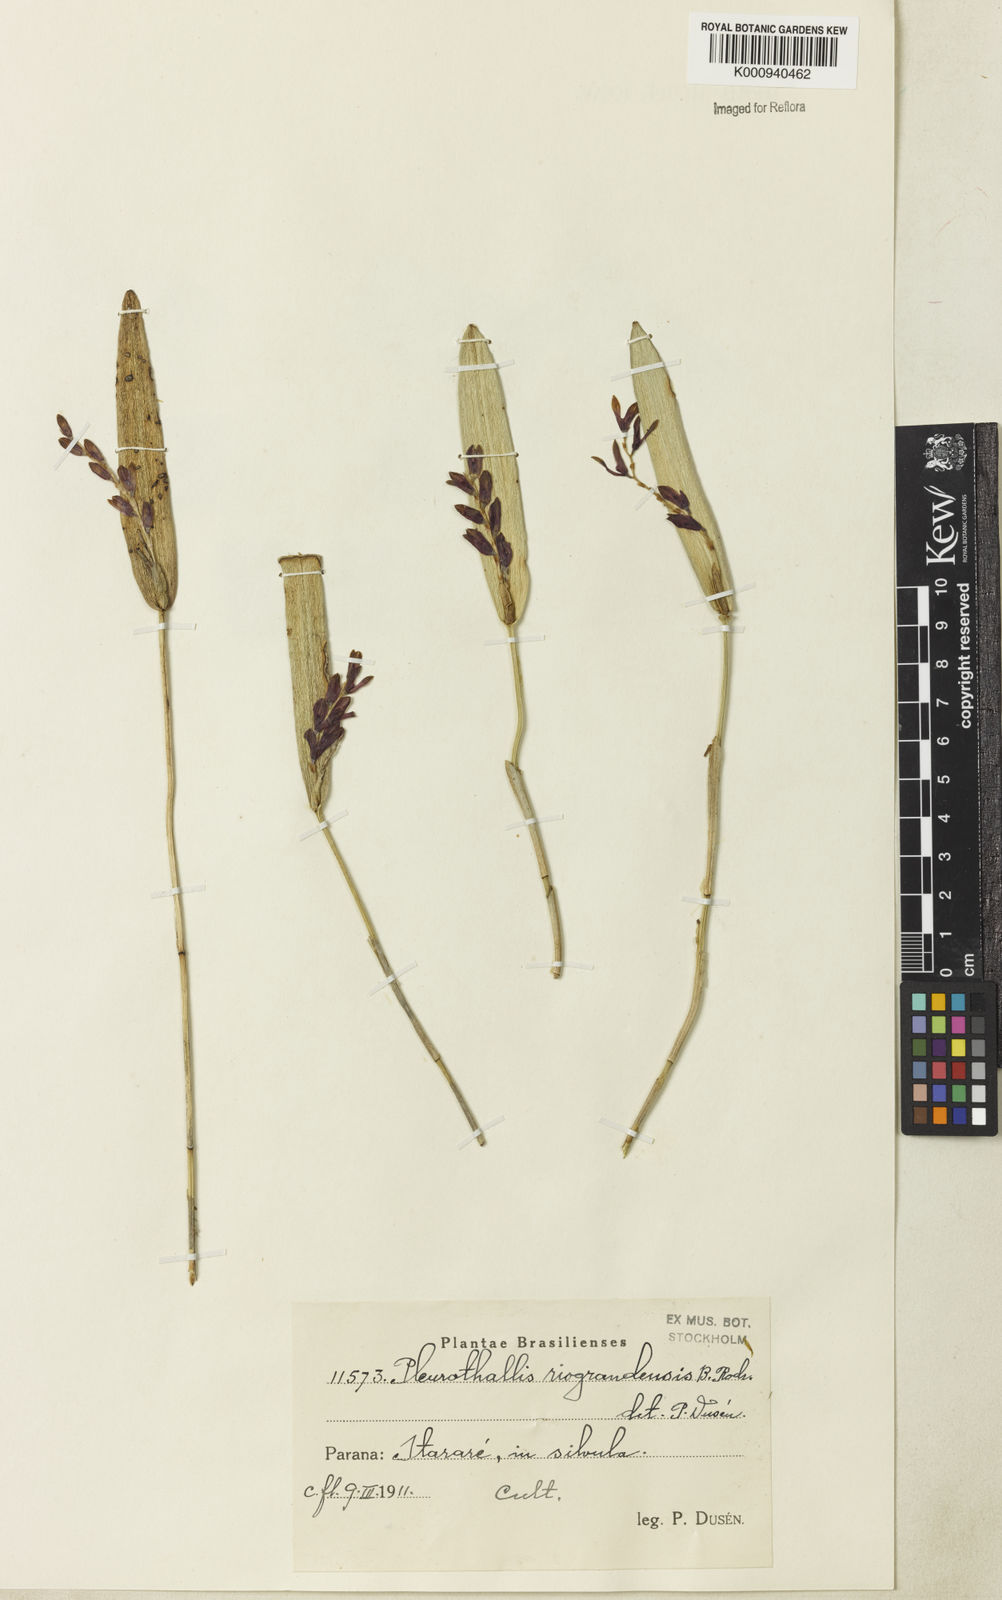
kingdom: Plantae
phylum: Tracheophyta
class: Liliopsida
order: Asparagales
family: Orchidaceae
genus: Acianthera
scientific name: Acianthera
